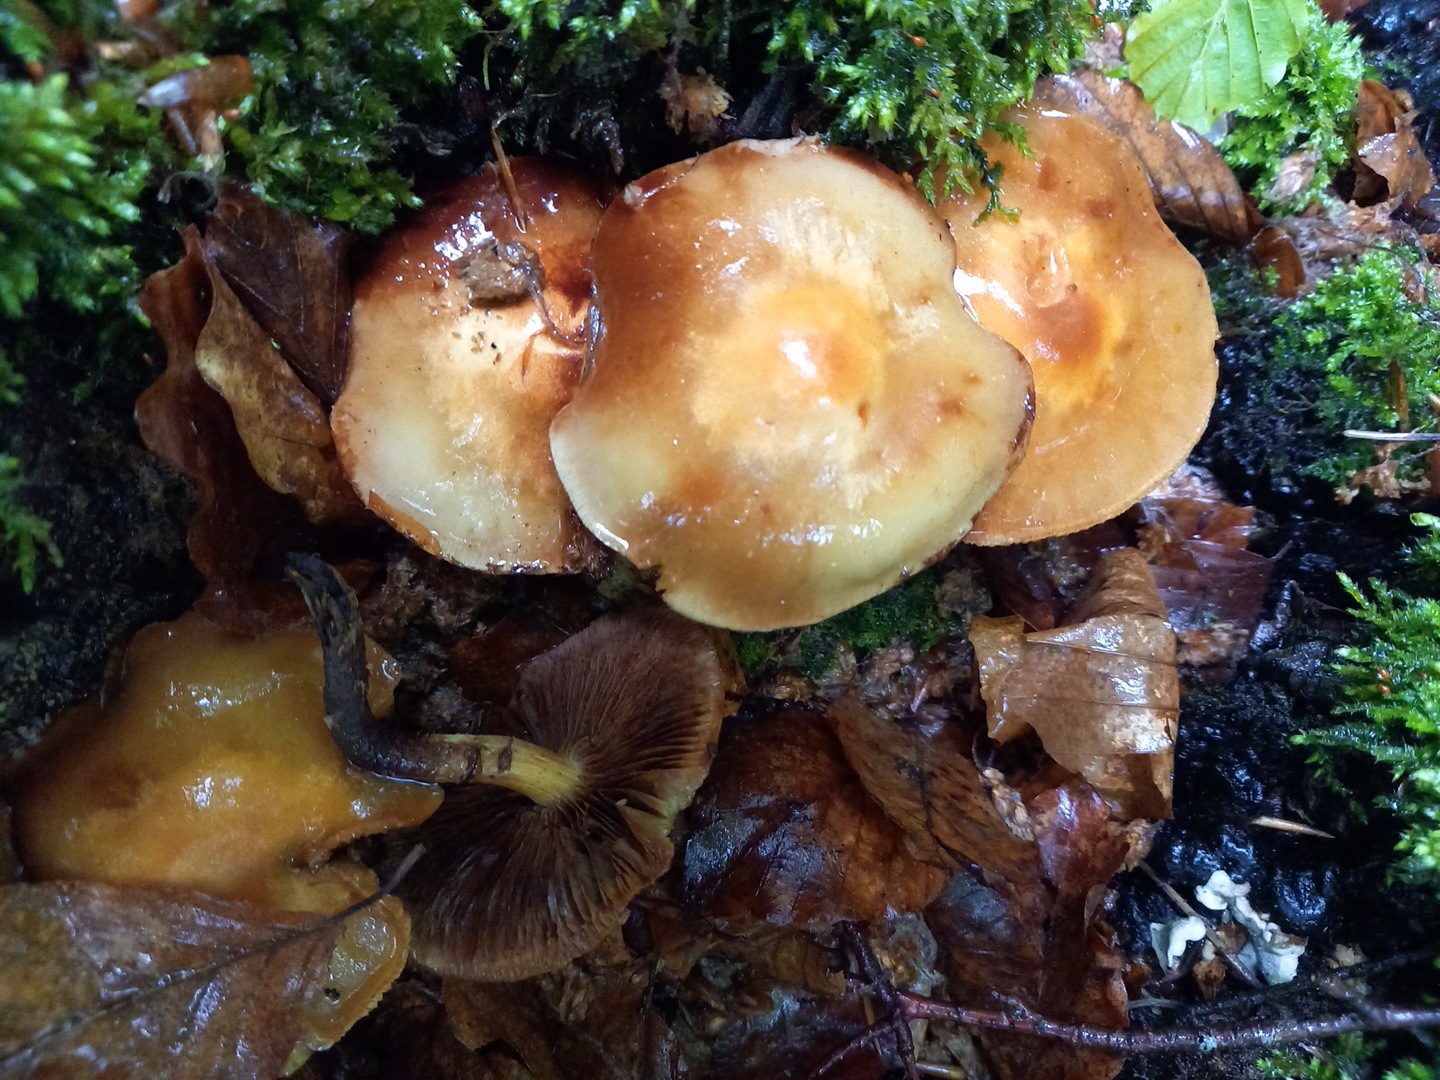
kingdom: Fungi
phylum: Basidiomycota
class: Agaricomycetes
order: Agaricales
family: Strophariaceae
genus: Kuehneromyces
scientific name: Kuehneromyces mutabilis
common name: foranderlig skælhat
